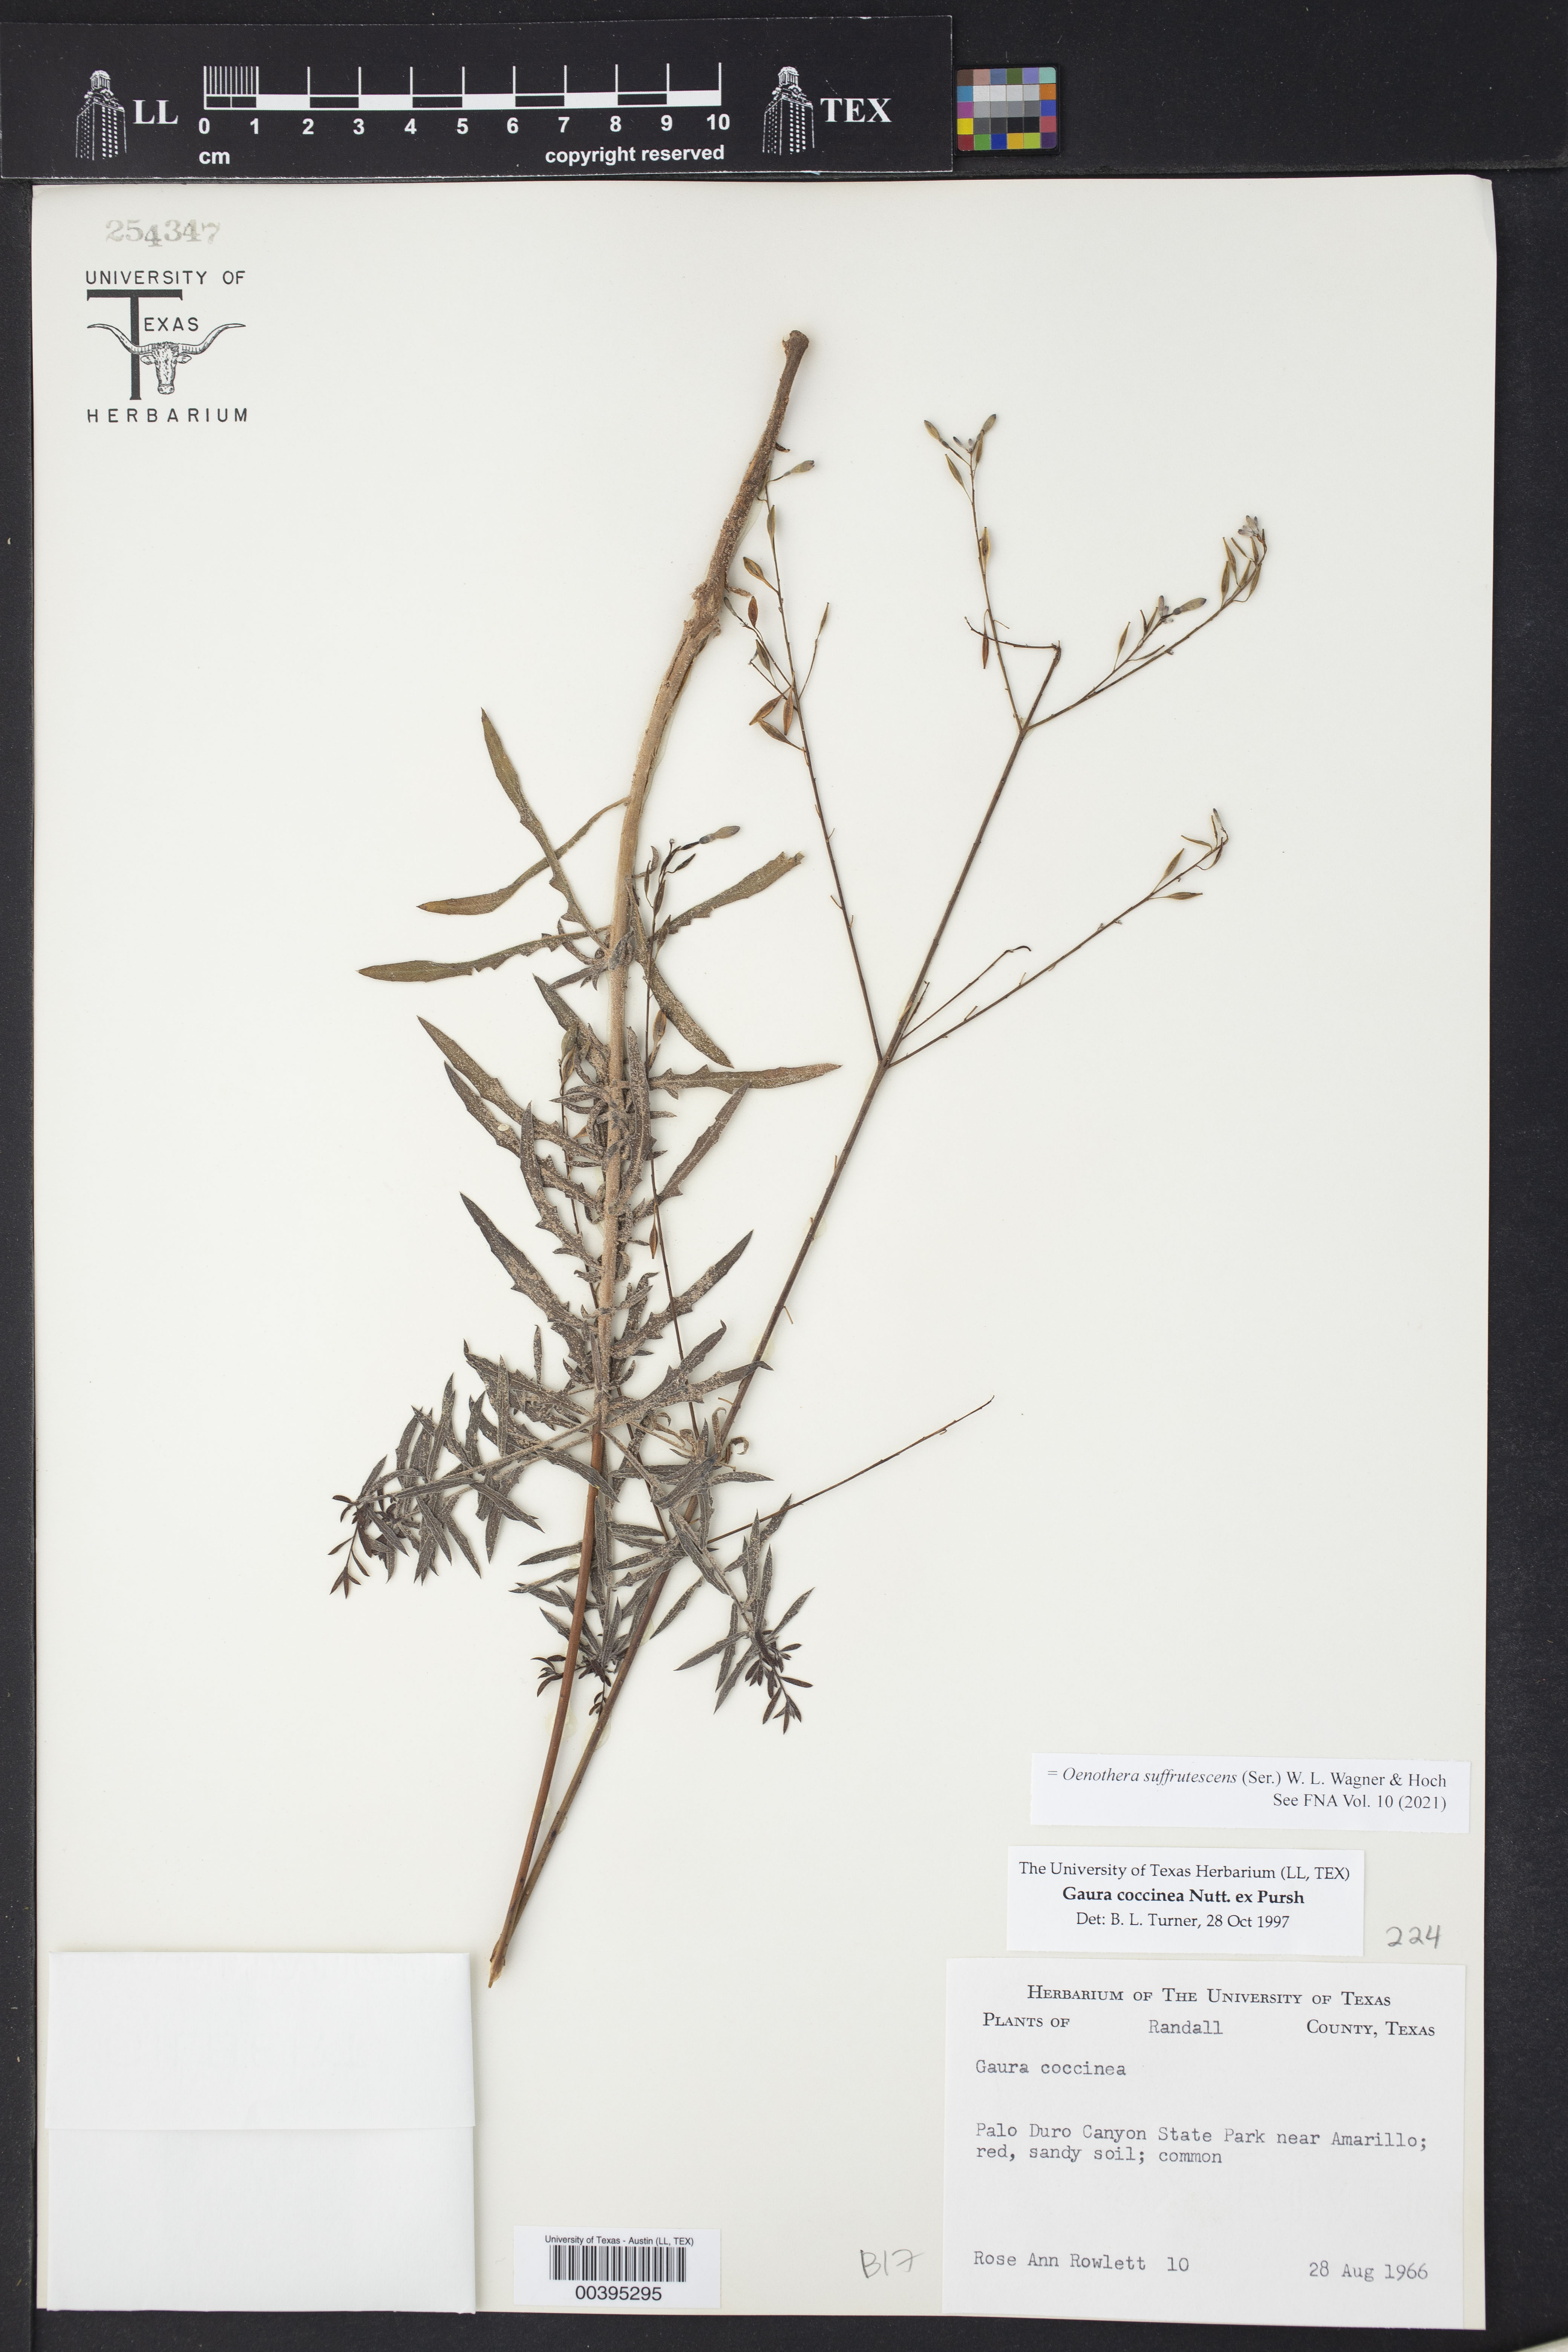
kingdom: Plantae
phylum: Tracheophyta
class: Magnoliopsida
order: Myrtales
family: Onagraceae
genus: Oenothera
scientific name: Oenothera suffrutescens
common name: Scarlet beeblossom
